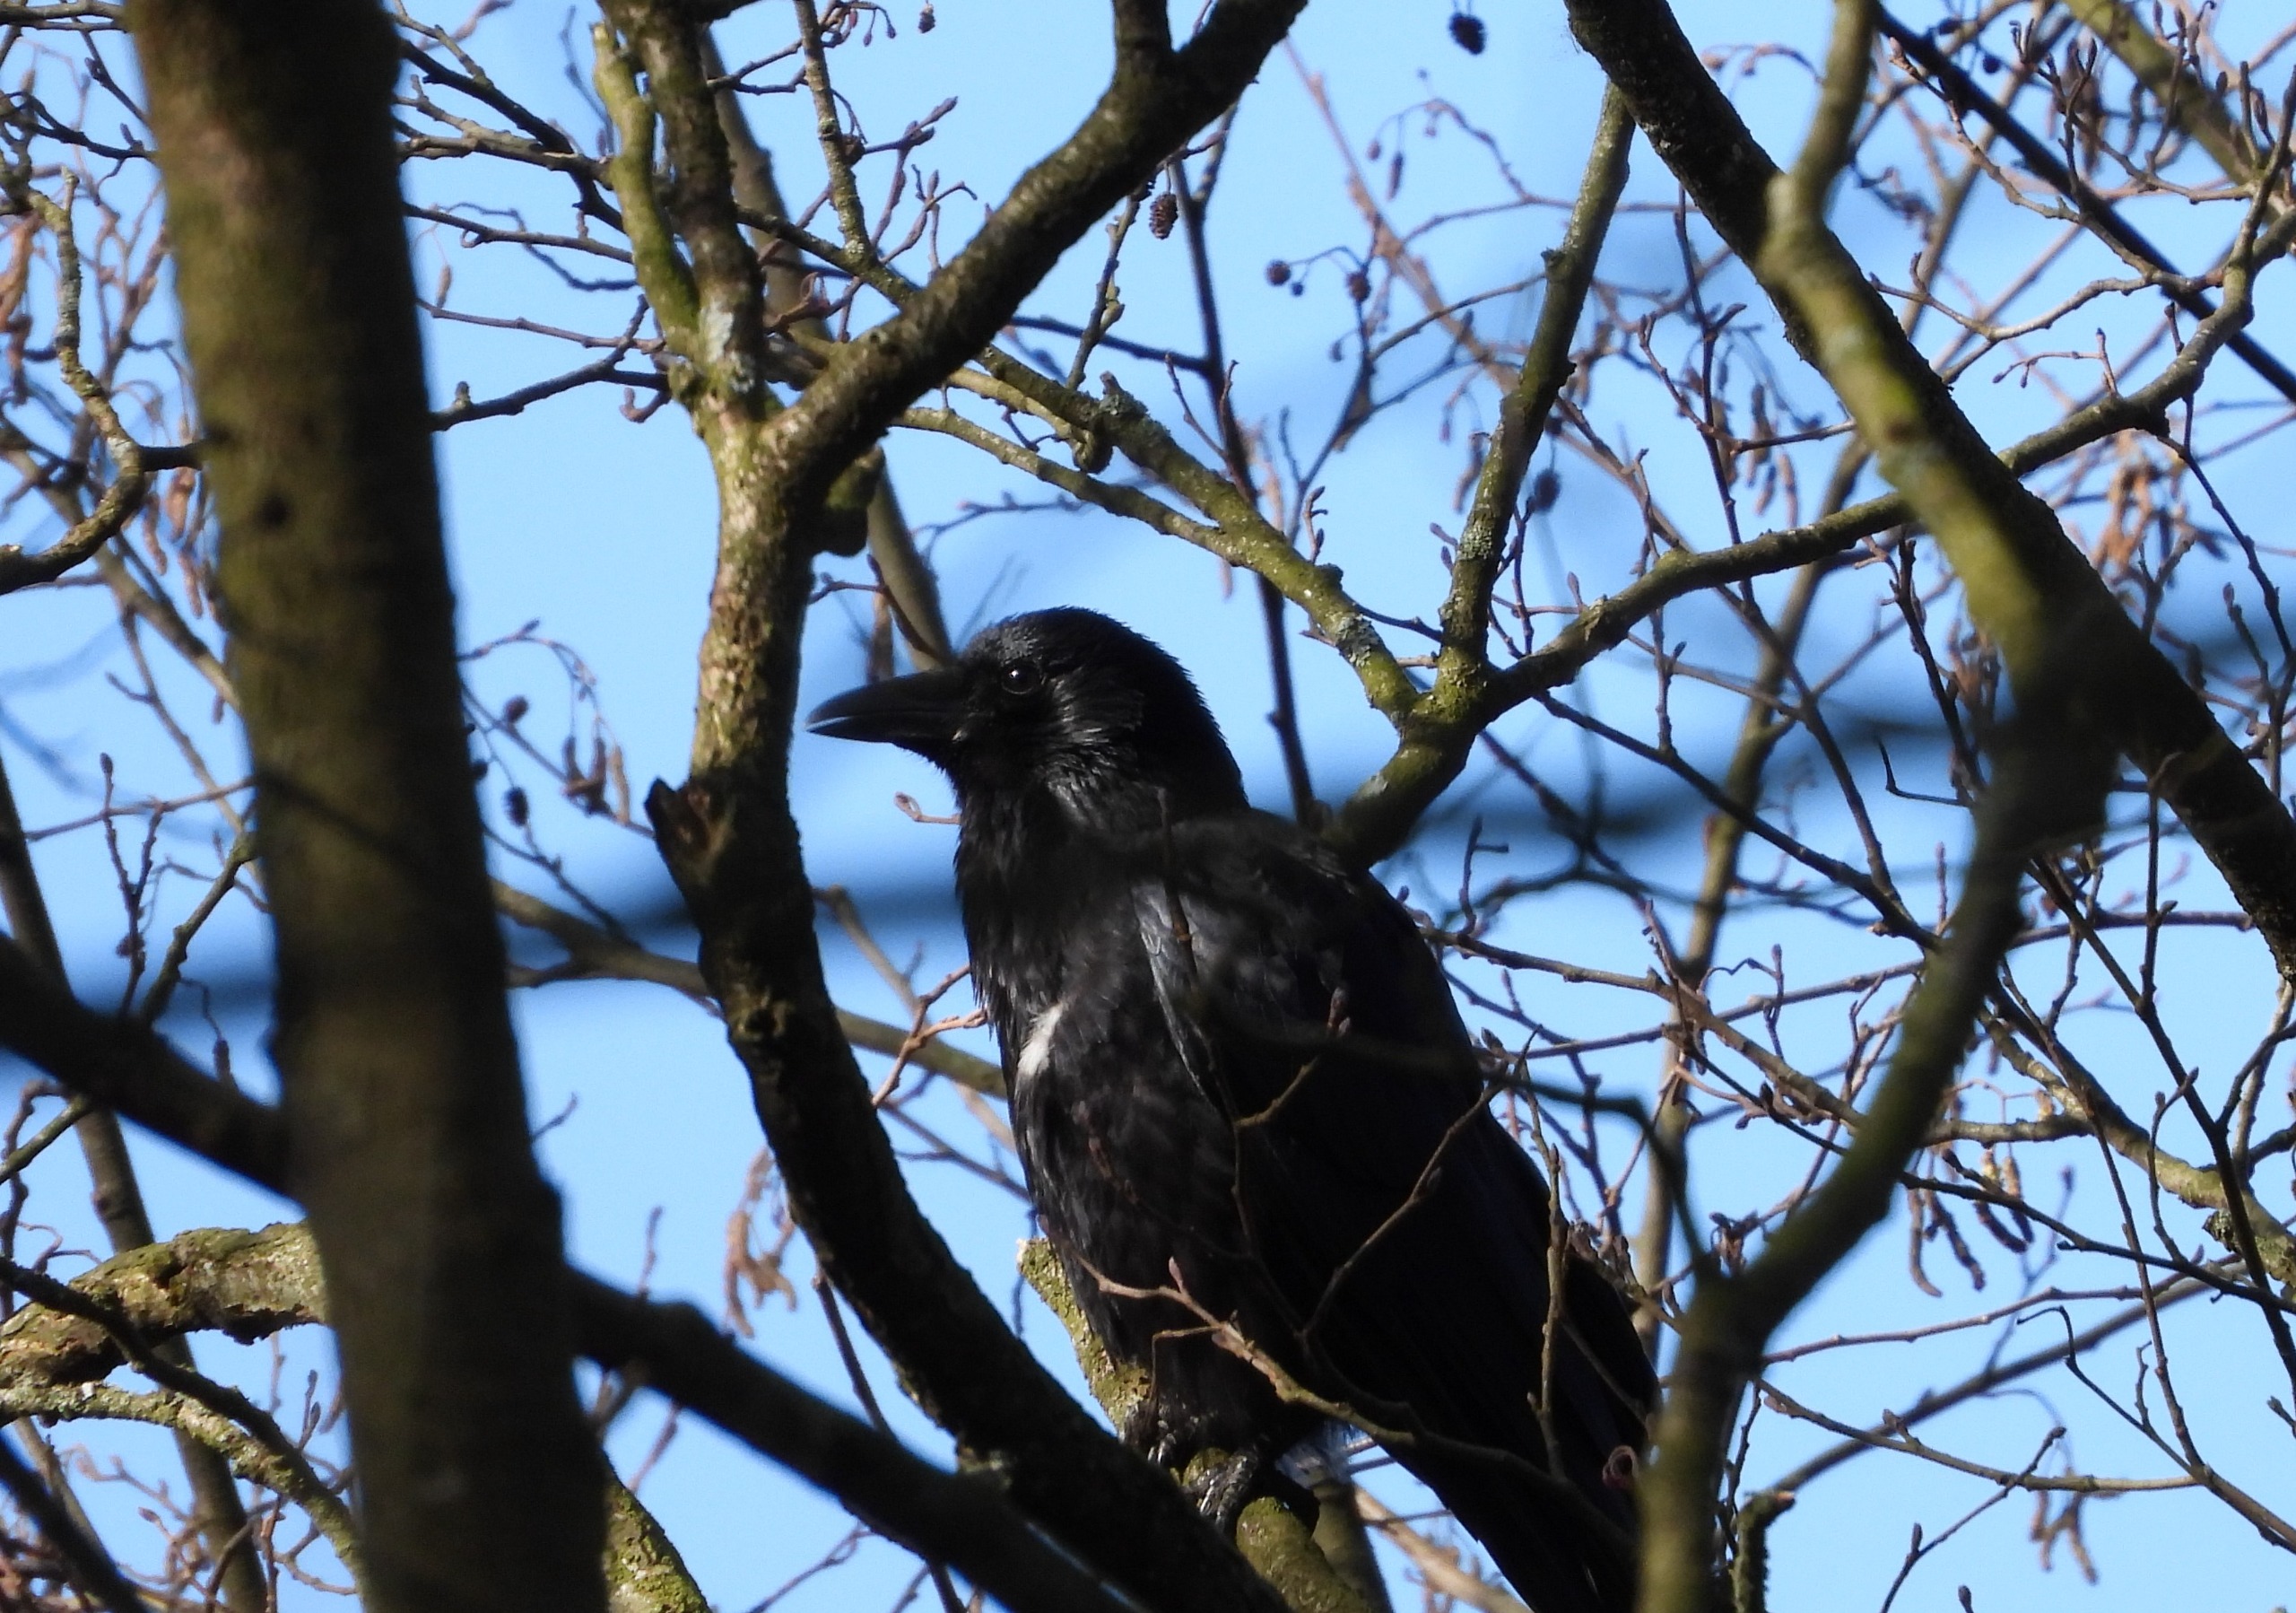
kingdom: Animalia
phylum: Chordata
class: Aves
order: Passeriformes
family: Corvidae
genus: Corvus
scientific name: Corvus corone
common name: Sortkrage
